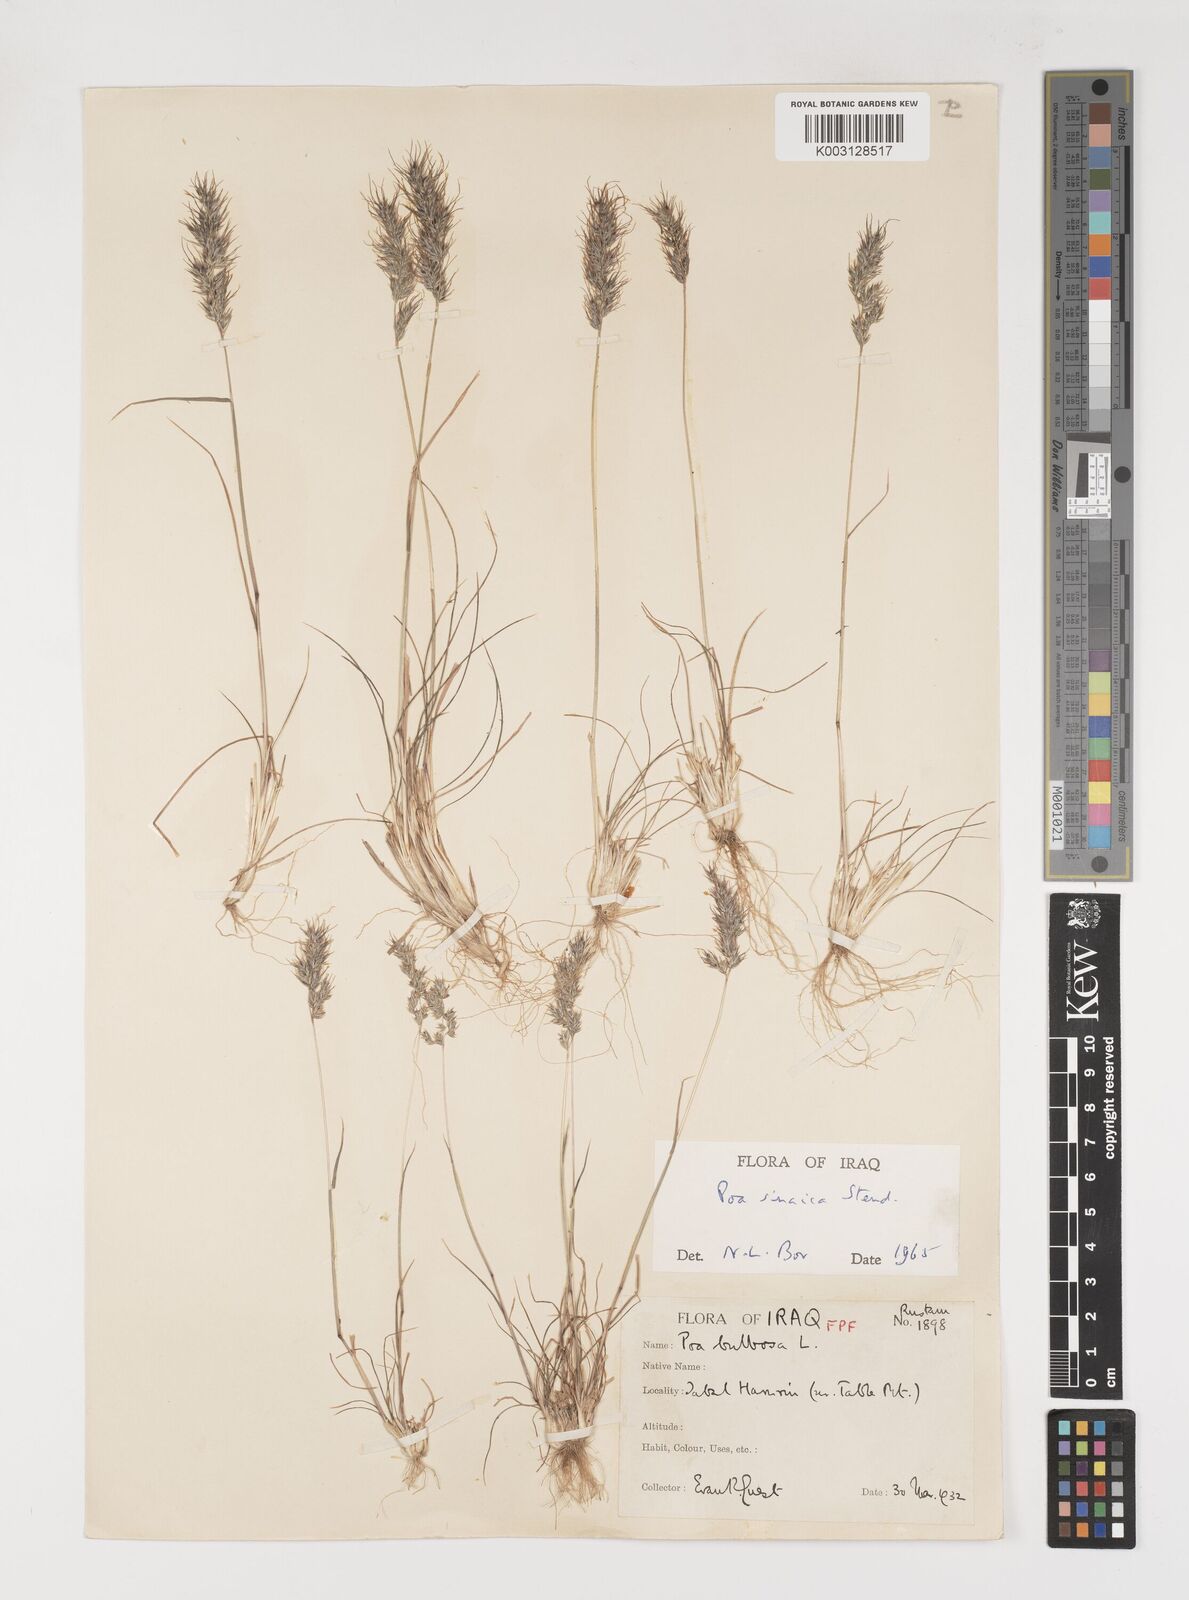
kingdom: Plantae
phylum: Tracheophyta
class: Liliopsida
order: Poales
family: Poaceae
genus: Poa
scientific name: Poa sinaica
